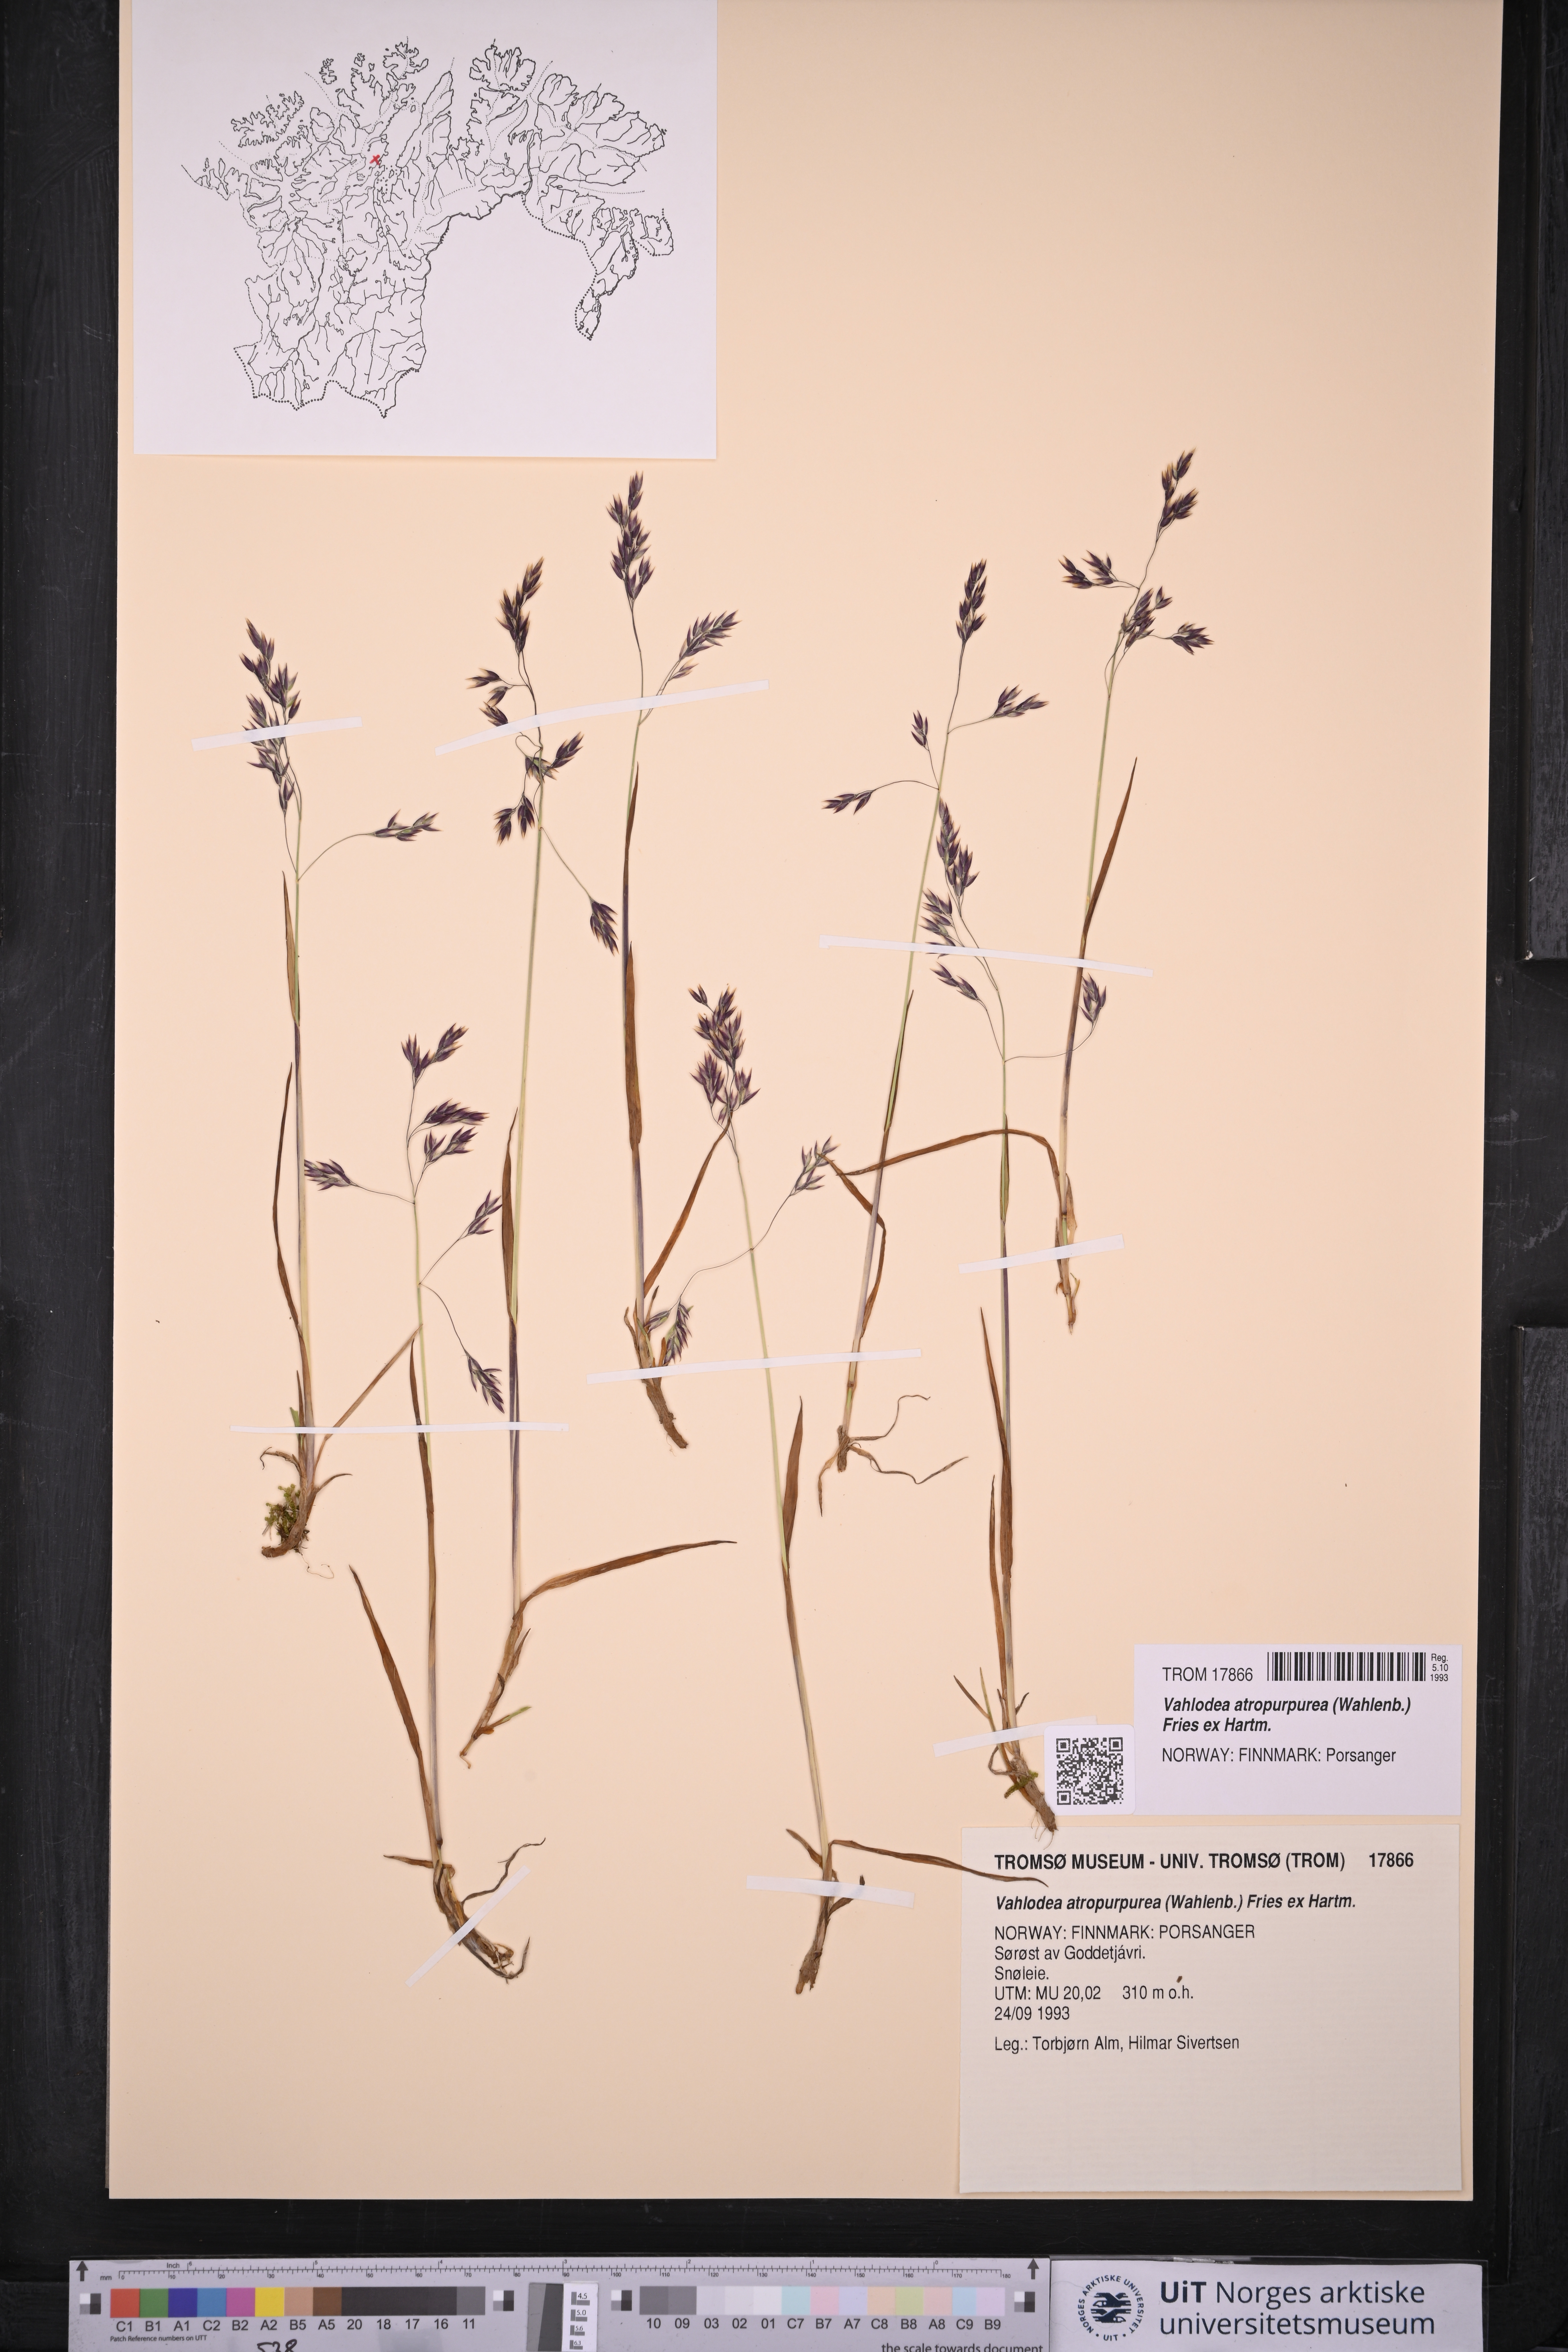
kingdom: Plantae
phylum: Tracheophyta
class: Liliopsida
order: Poales
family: Poaceae
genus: Vahlodea
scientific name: Vahlodea atropurpurea
